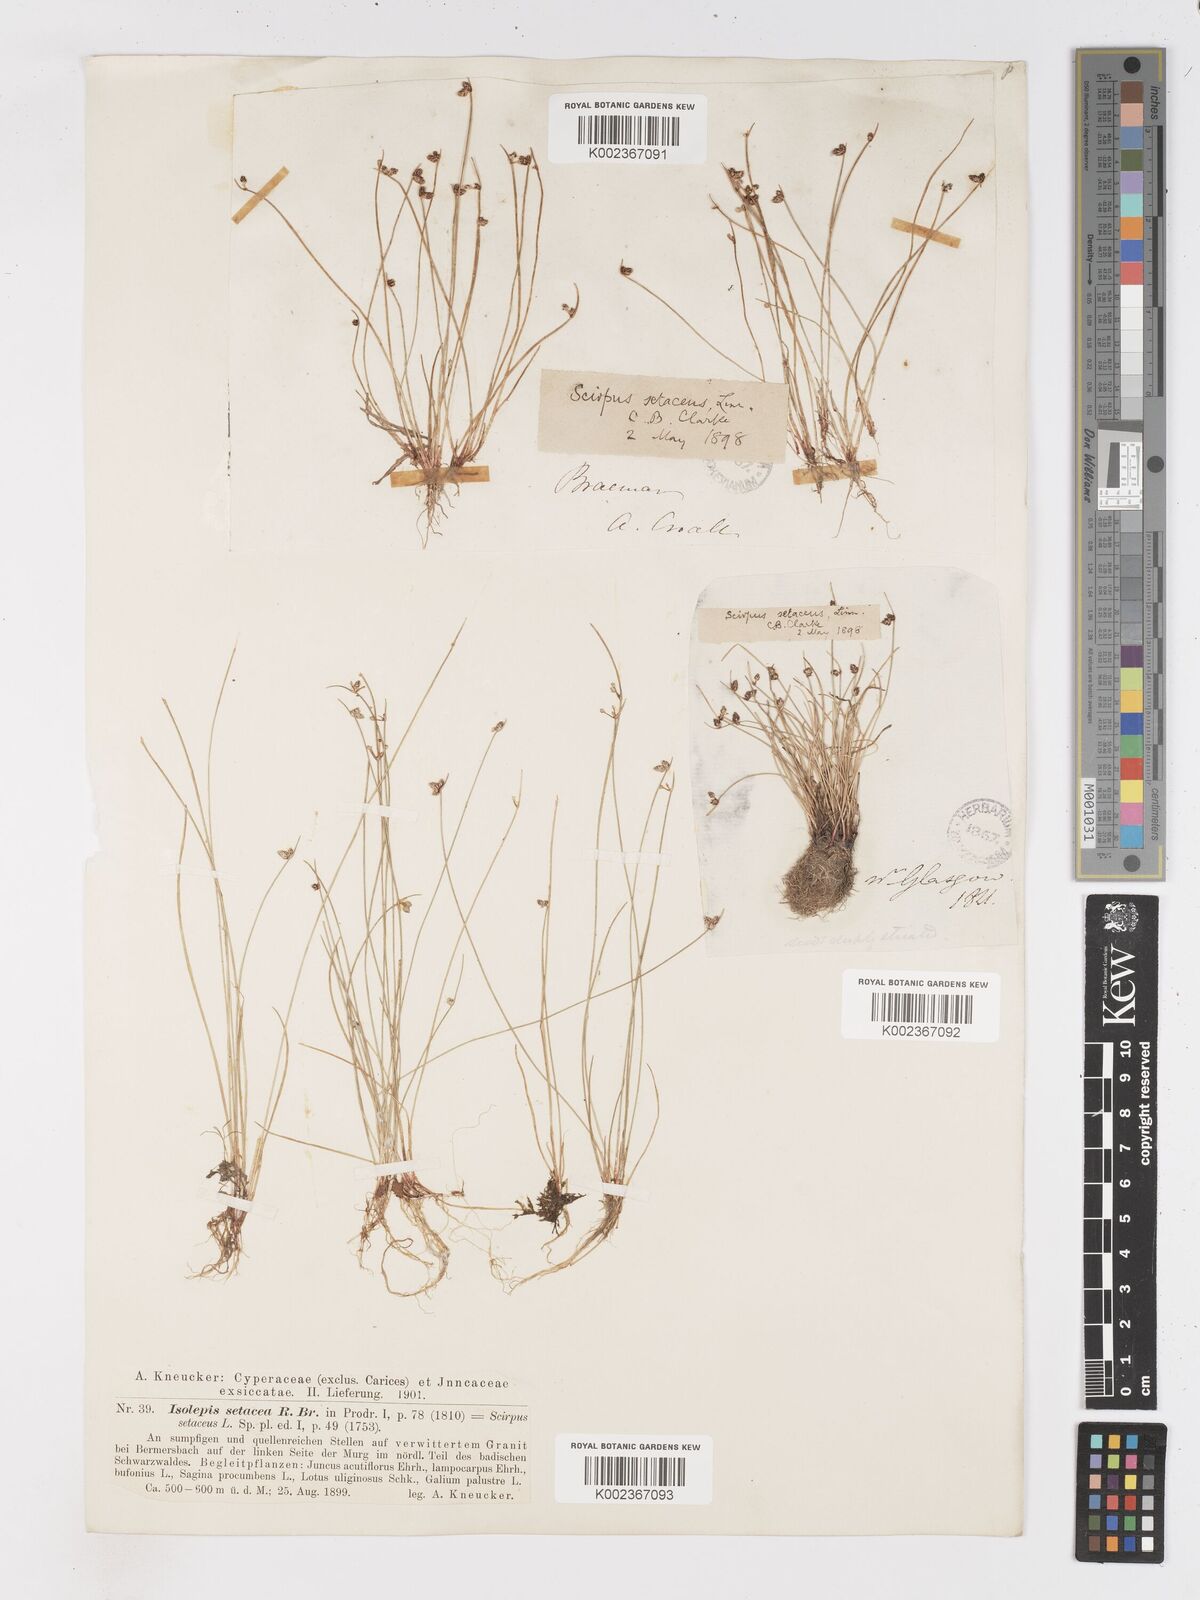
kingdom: Plantae
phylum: Tracheophyta
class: Liliopsida
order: Poales
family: Cyperaceae
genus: Isolepis
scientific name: Isolepis setacea
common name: Bristle club-rush
